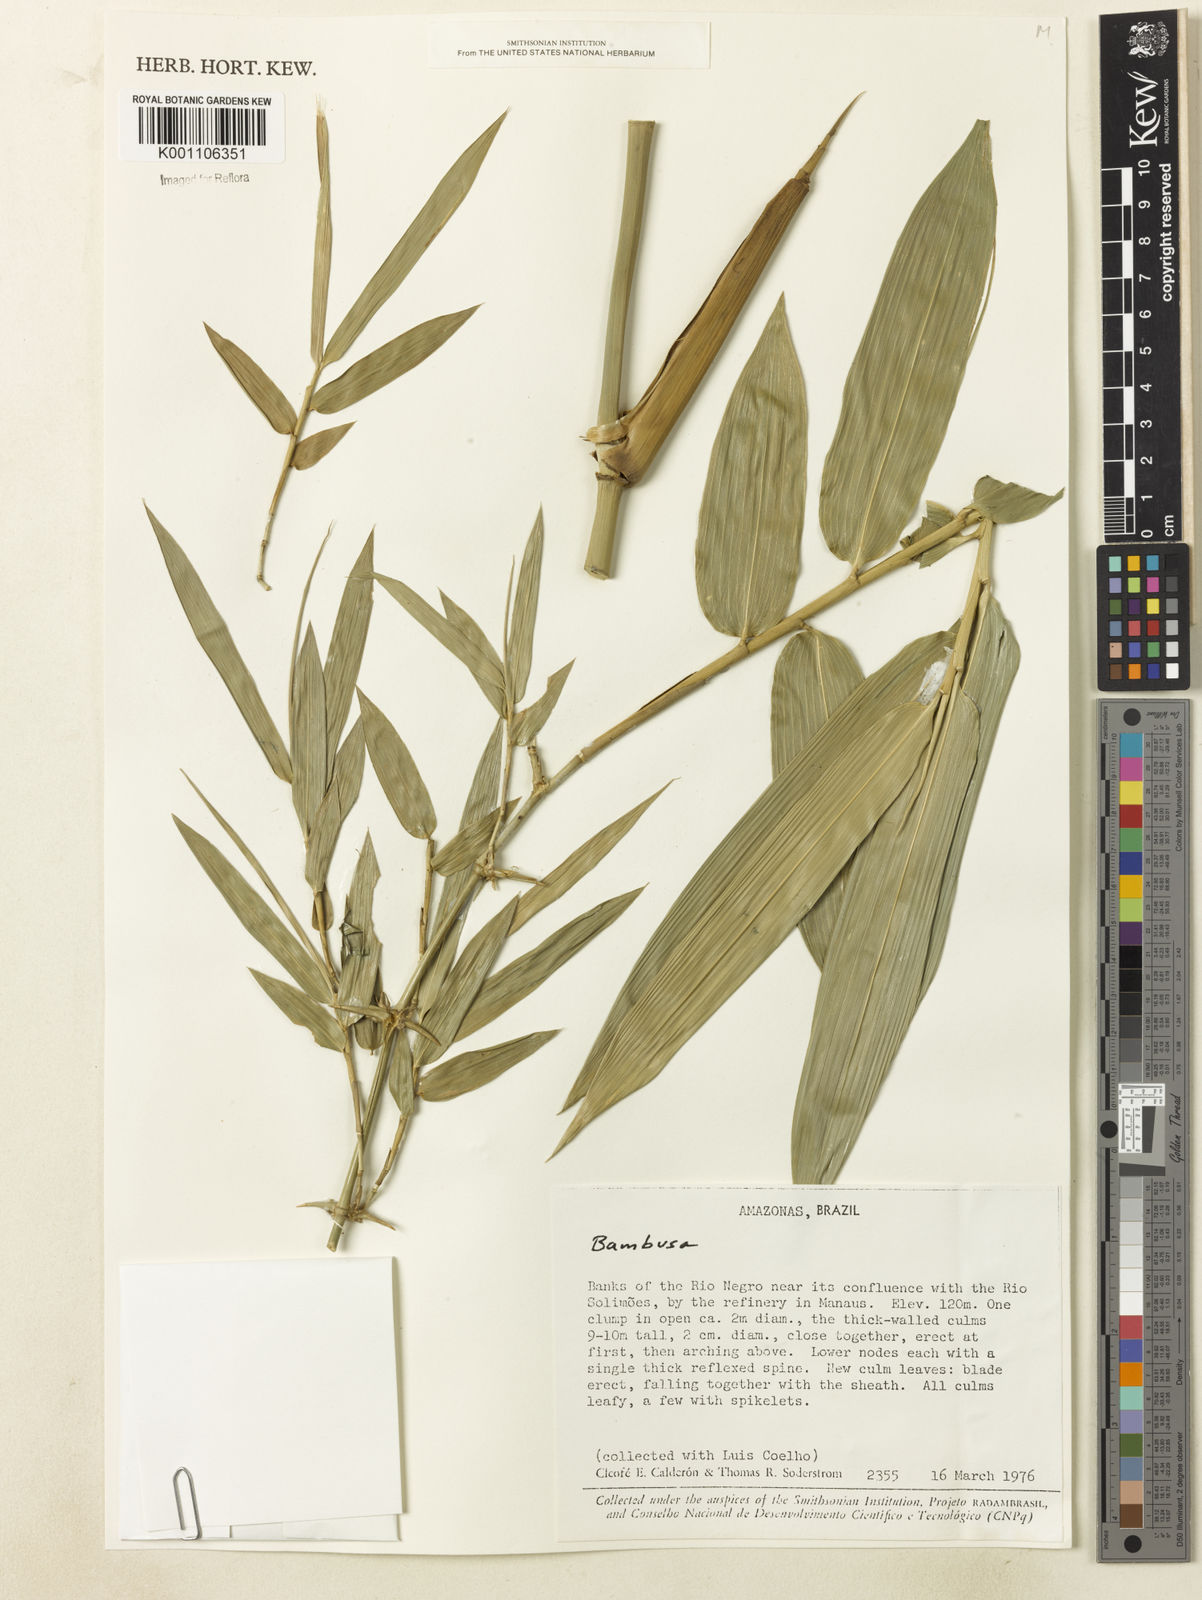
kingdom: Plantae
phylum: Tracheophyta
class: Liliopsida
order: Poales
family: Poaceae
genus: Guadua
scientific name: Guadua paraguayana
